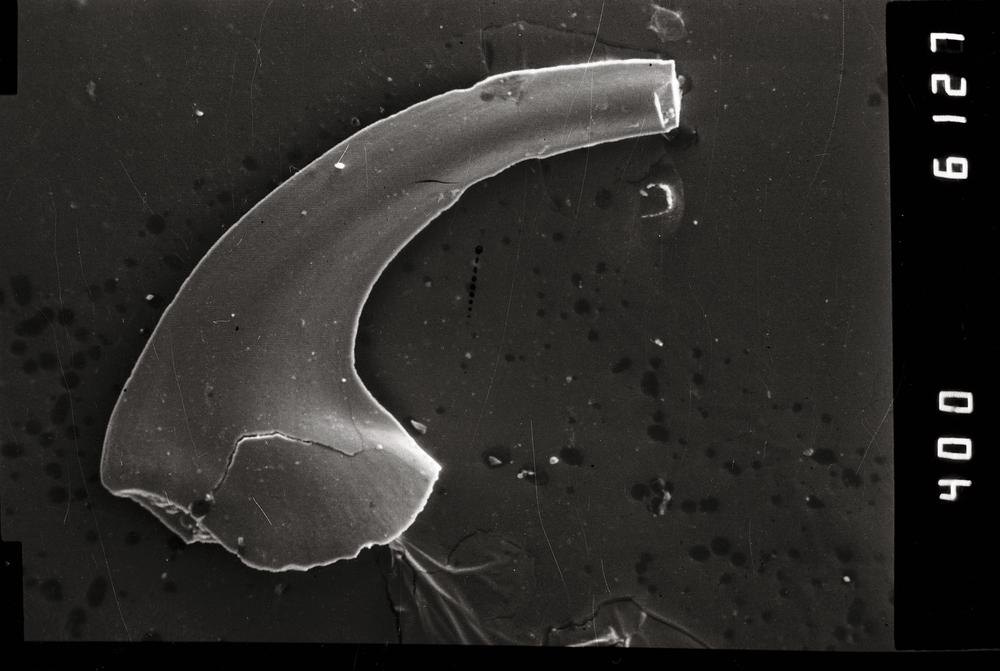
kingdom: Animalia
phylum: Chordata
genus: Paroistodus
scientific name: Paroistodus
